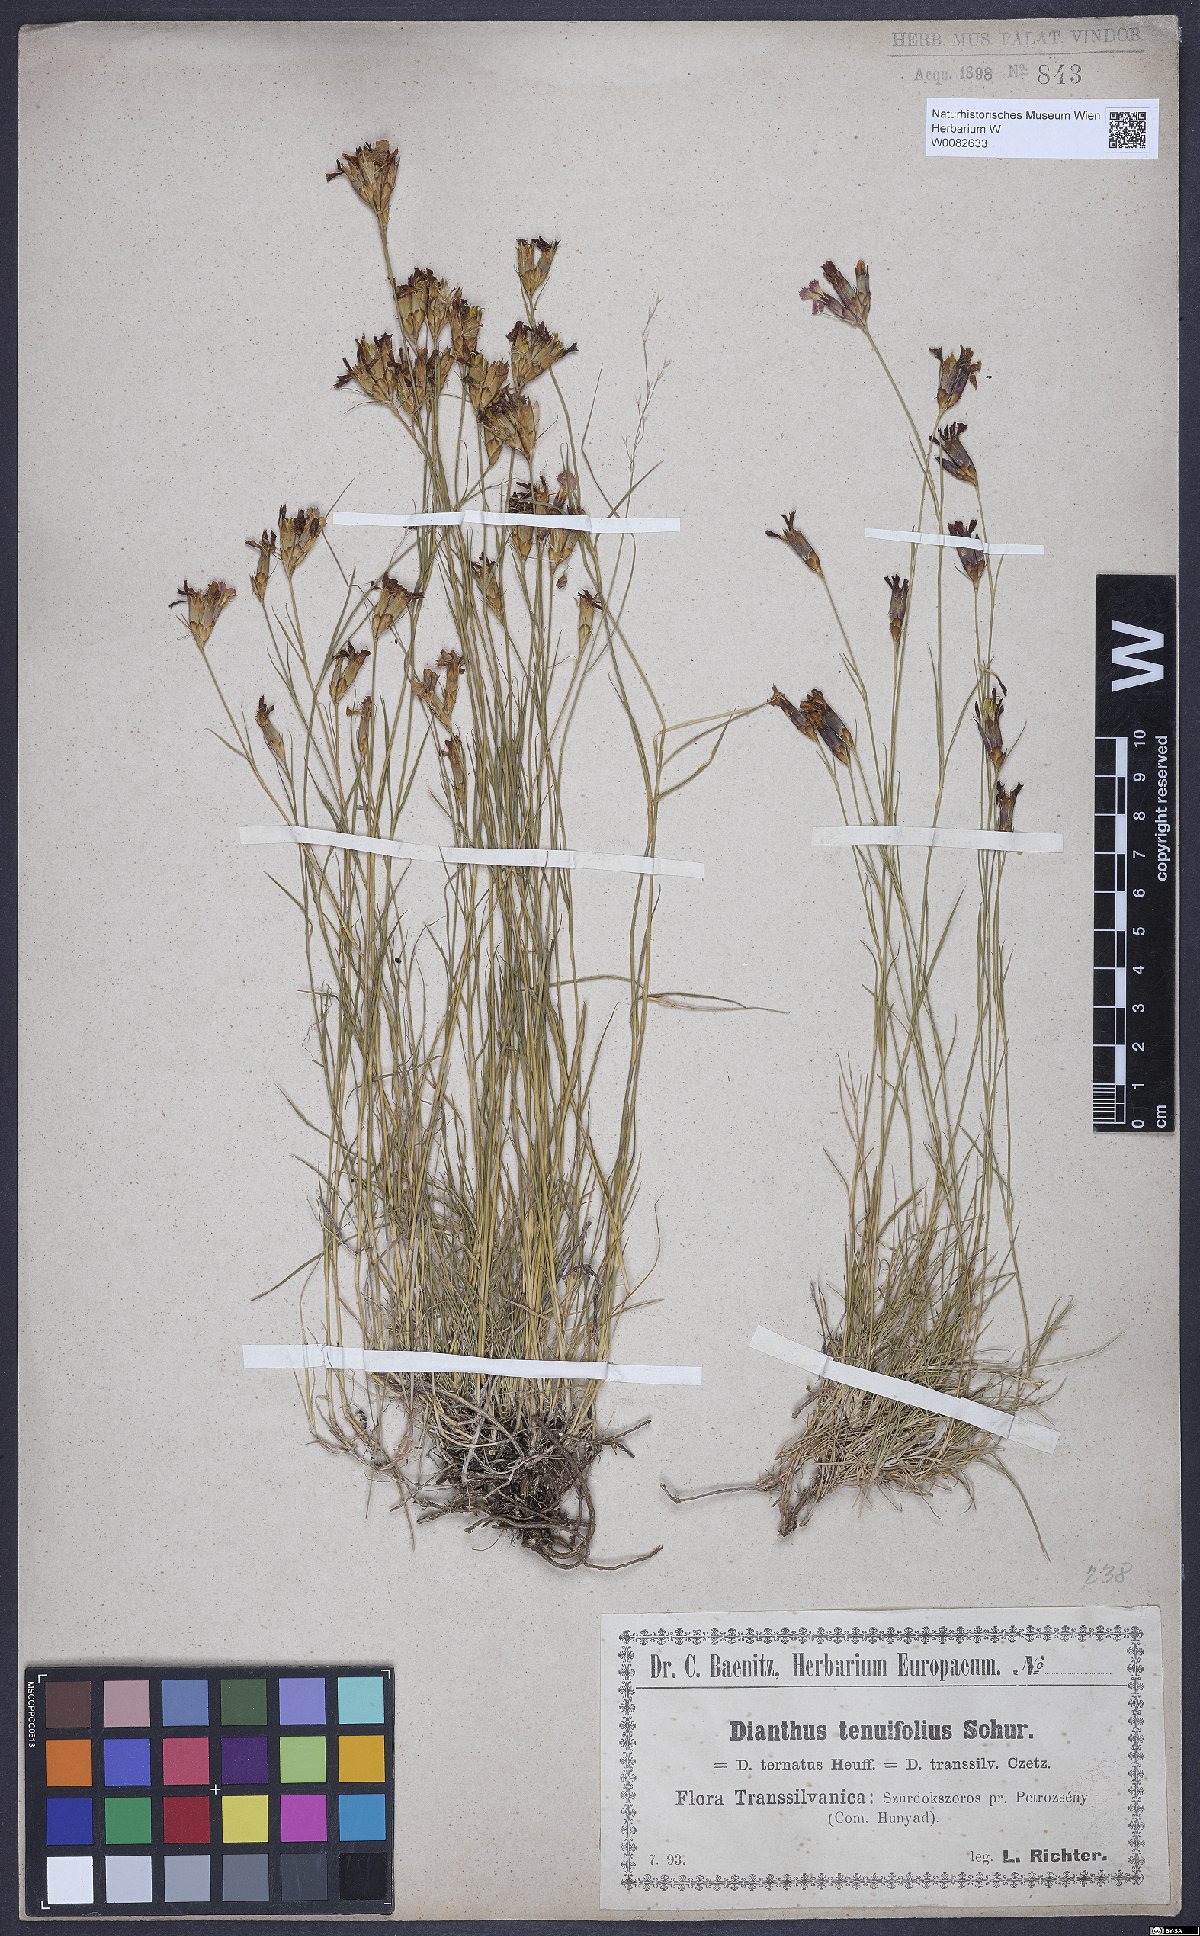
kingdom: Plantae
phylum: Tracheophyta
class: Magnoliopsida
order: Caryophyllales
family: Caryophyllaceae
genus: Dianthus
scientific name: Dianthus carthusianorum
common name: Carthusian pink
